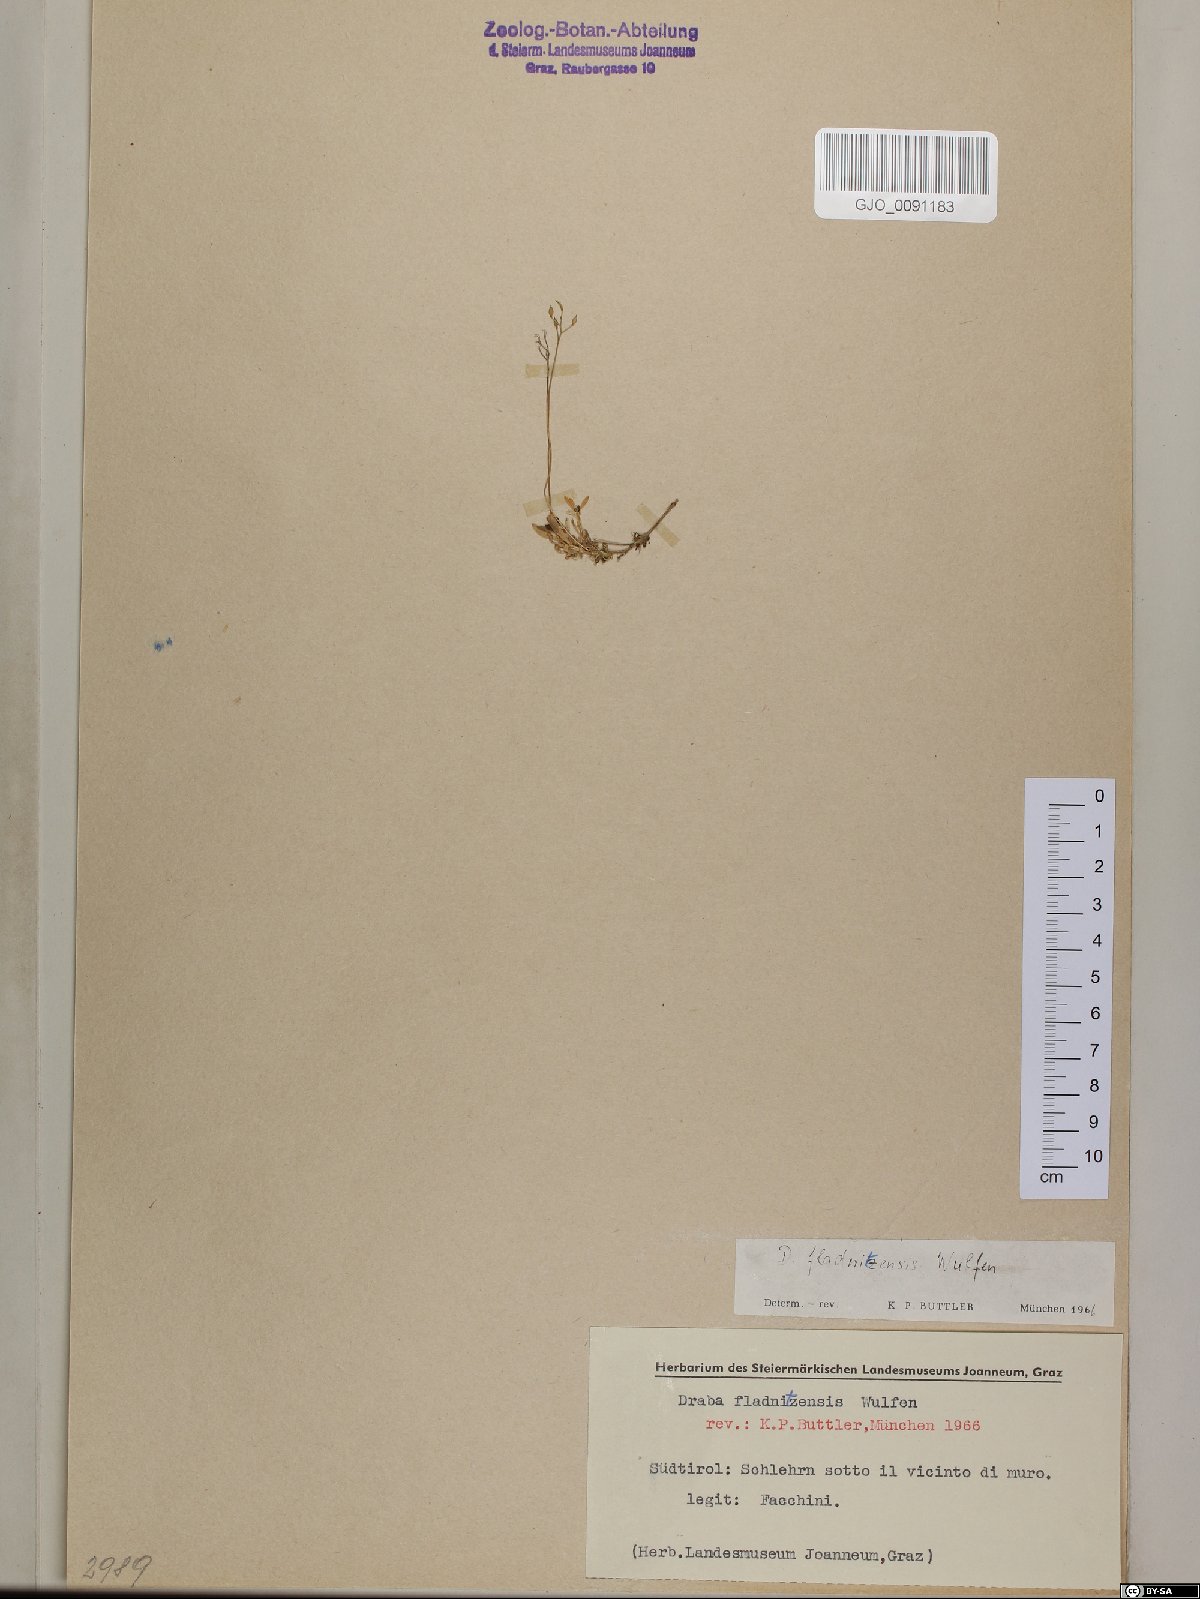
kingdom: Plantae
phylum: Tracheophyta
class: Magnoliopsida
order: Brassicales
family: Brassicaceae
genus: Draba
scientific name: Draba fladnizensis
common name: Austrian draba
